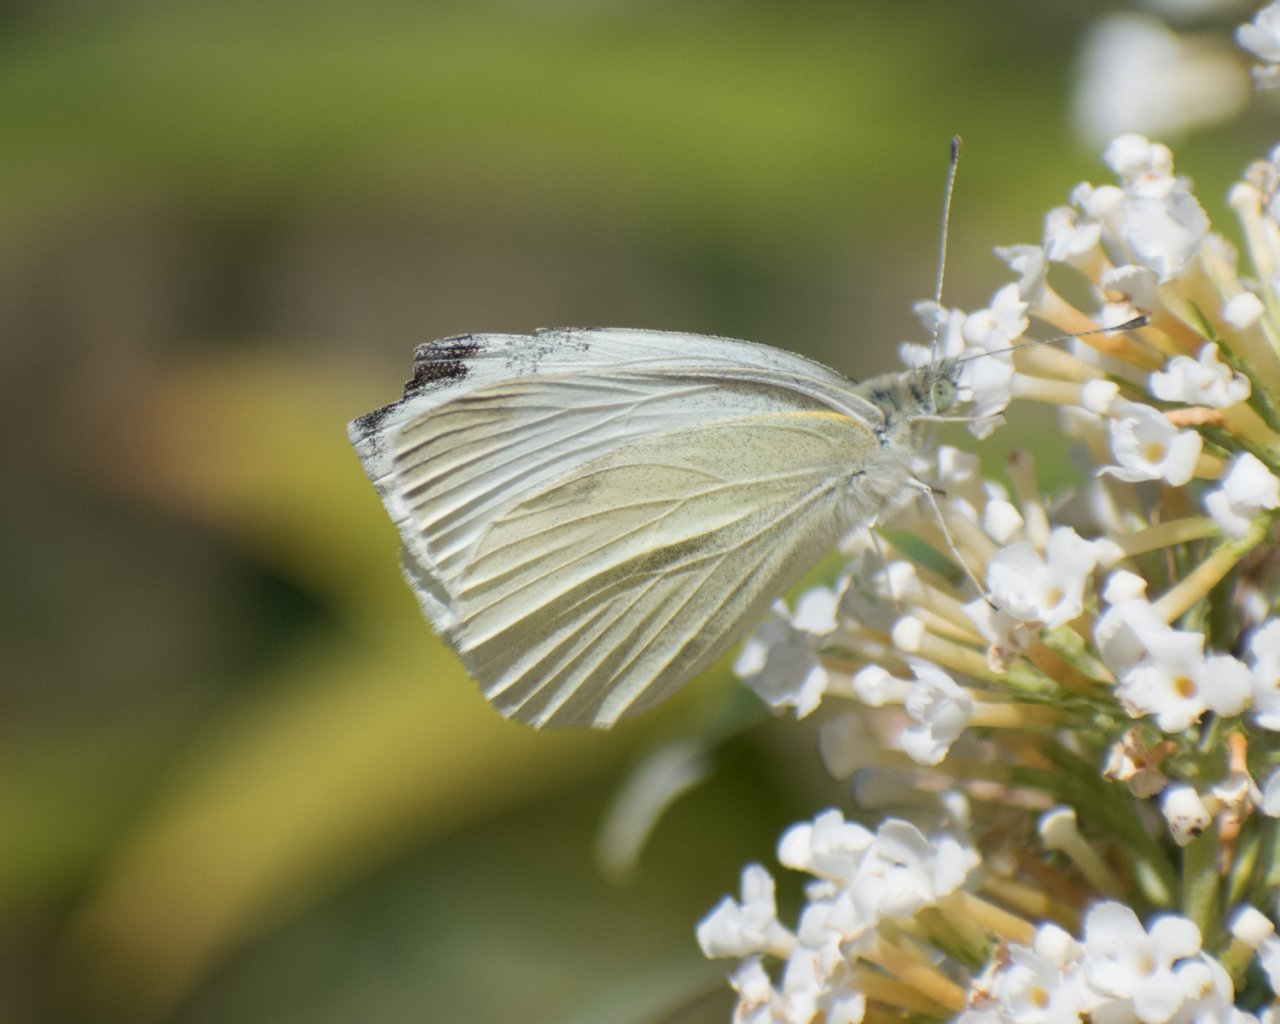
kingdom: Animalia
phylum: Arthropoda
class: Insecta
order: Lepidoptera
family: Pieridae
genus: Pieris
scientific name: Pieris rapae
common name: Cabbage White
